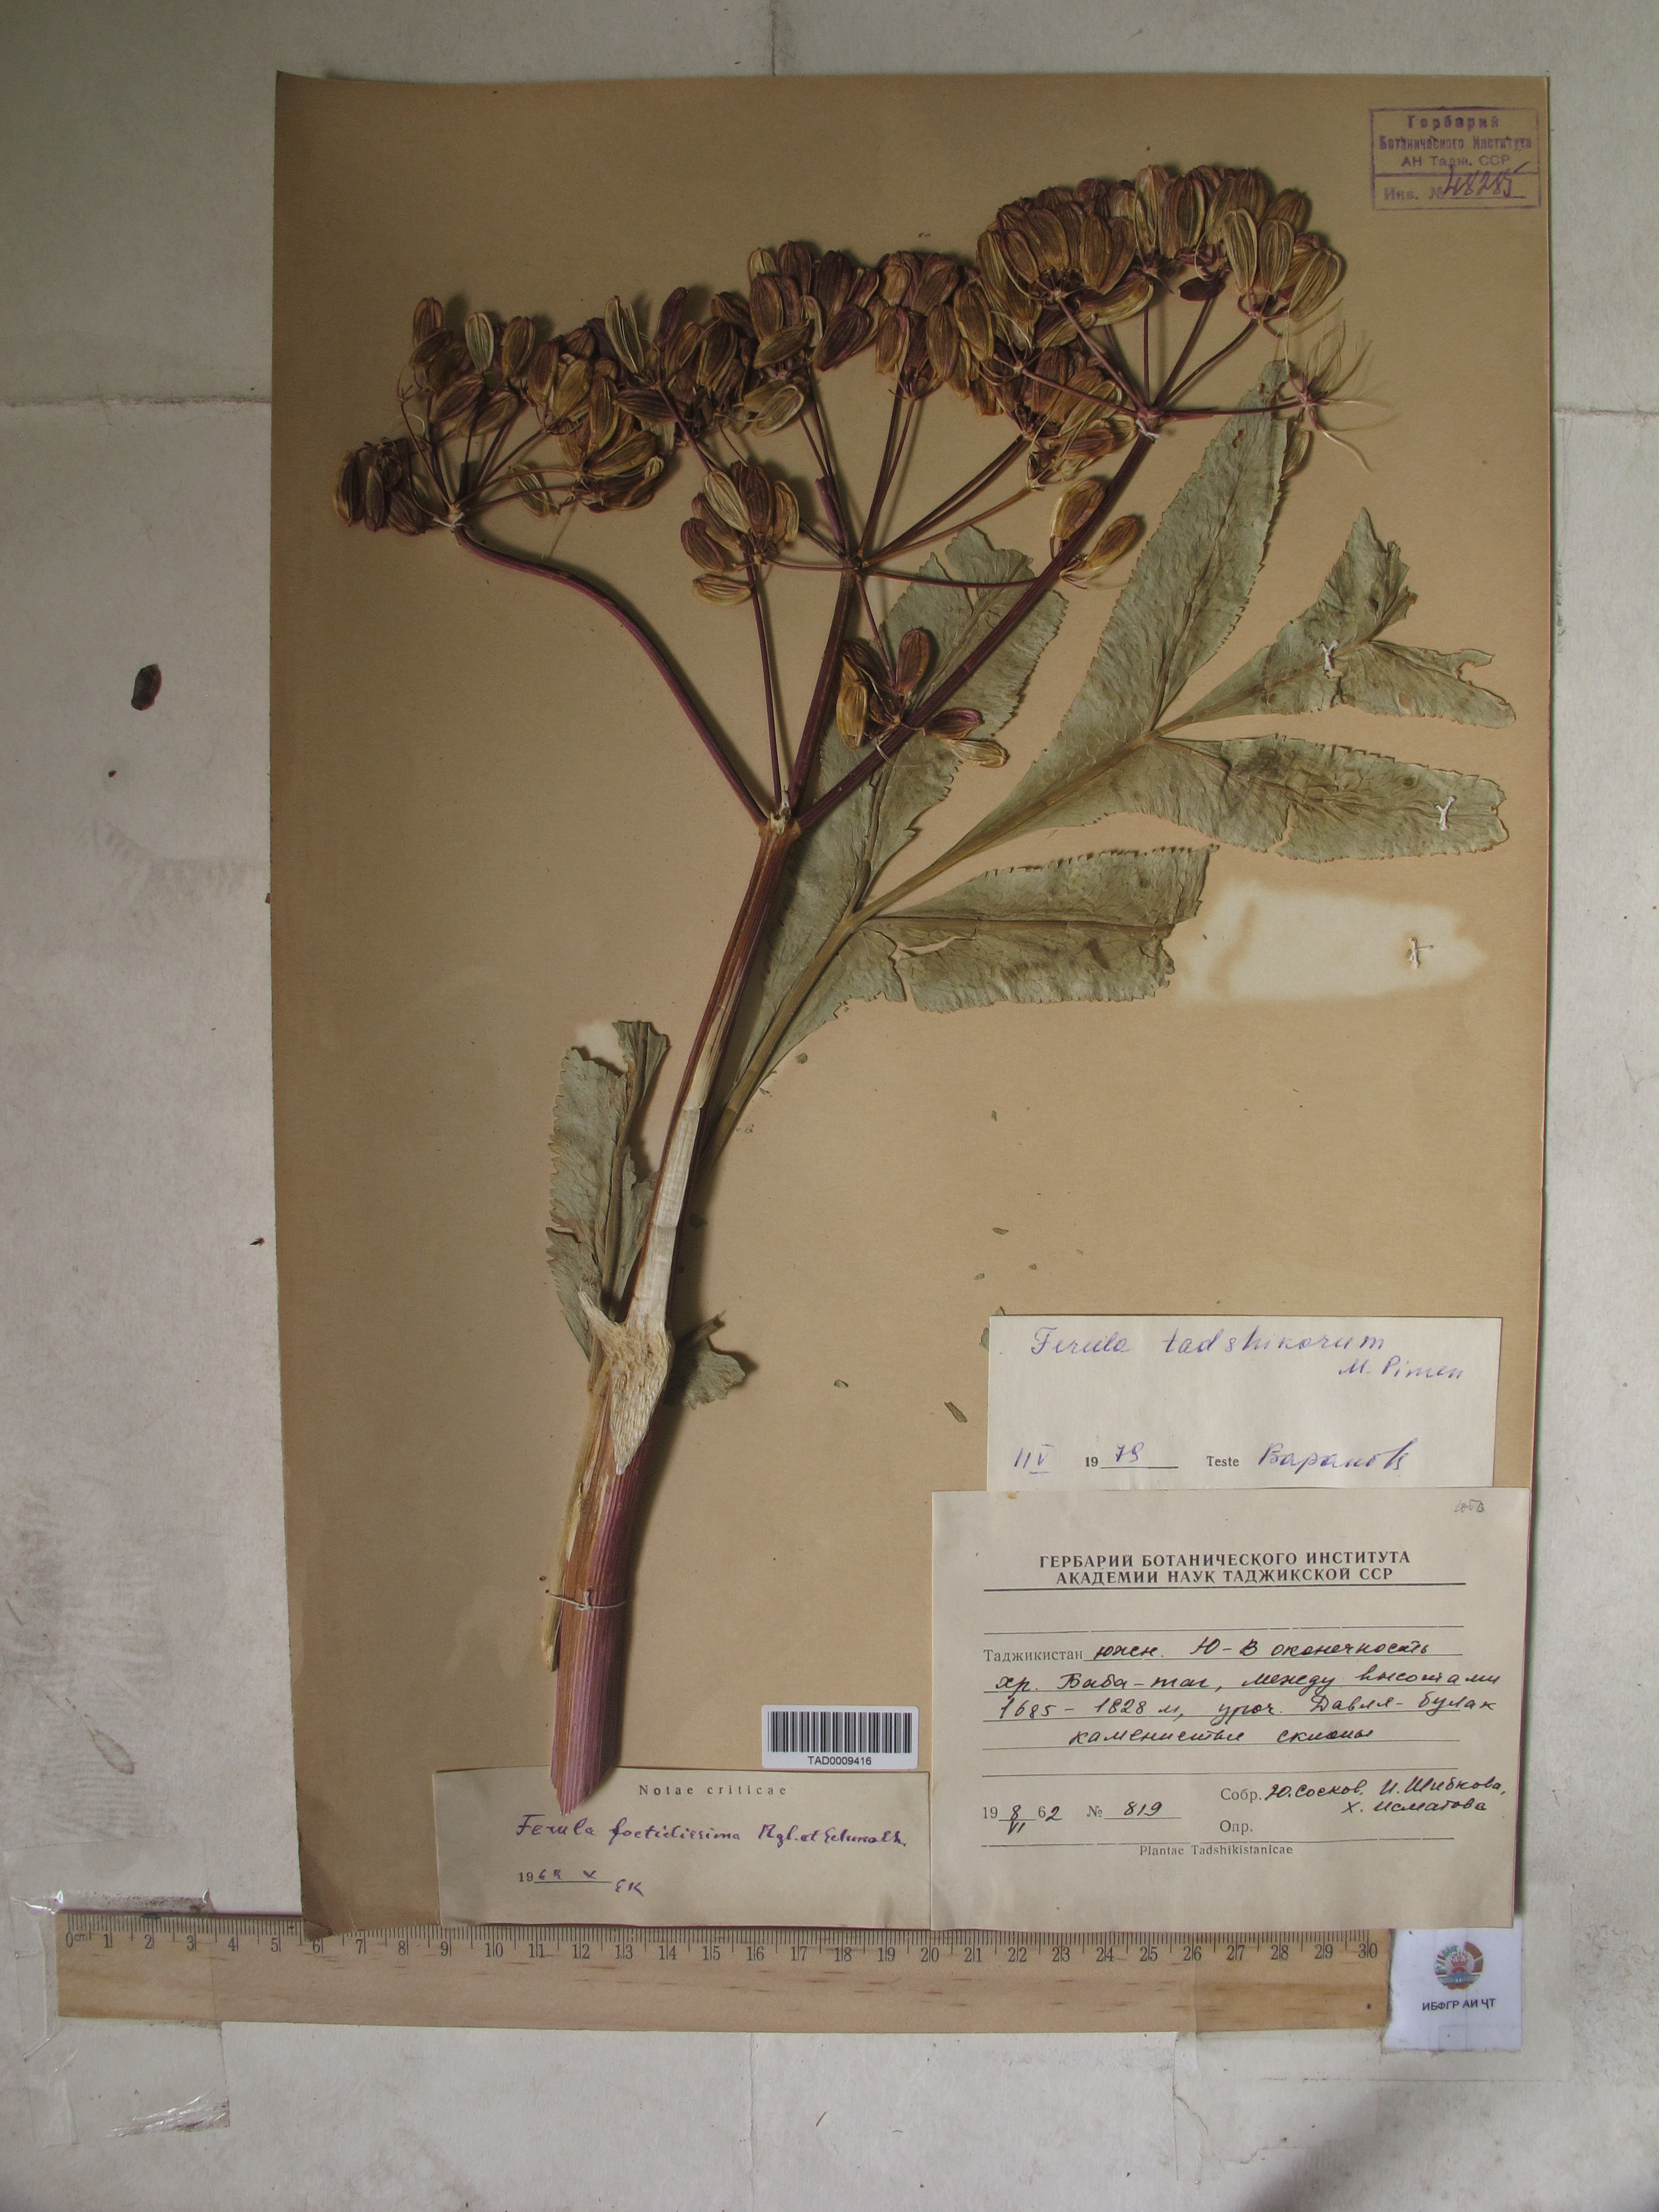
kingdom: Plantae
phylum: Tracheophyta
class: Magnoliopsida
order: Apiales
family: Apiaceae
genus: Ferula
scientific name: Ferula tadshikorum
